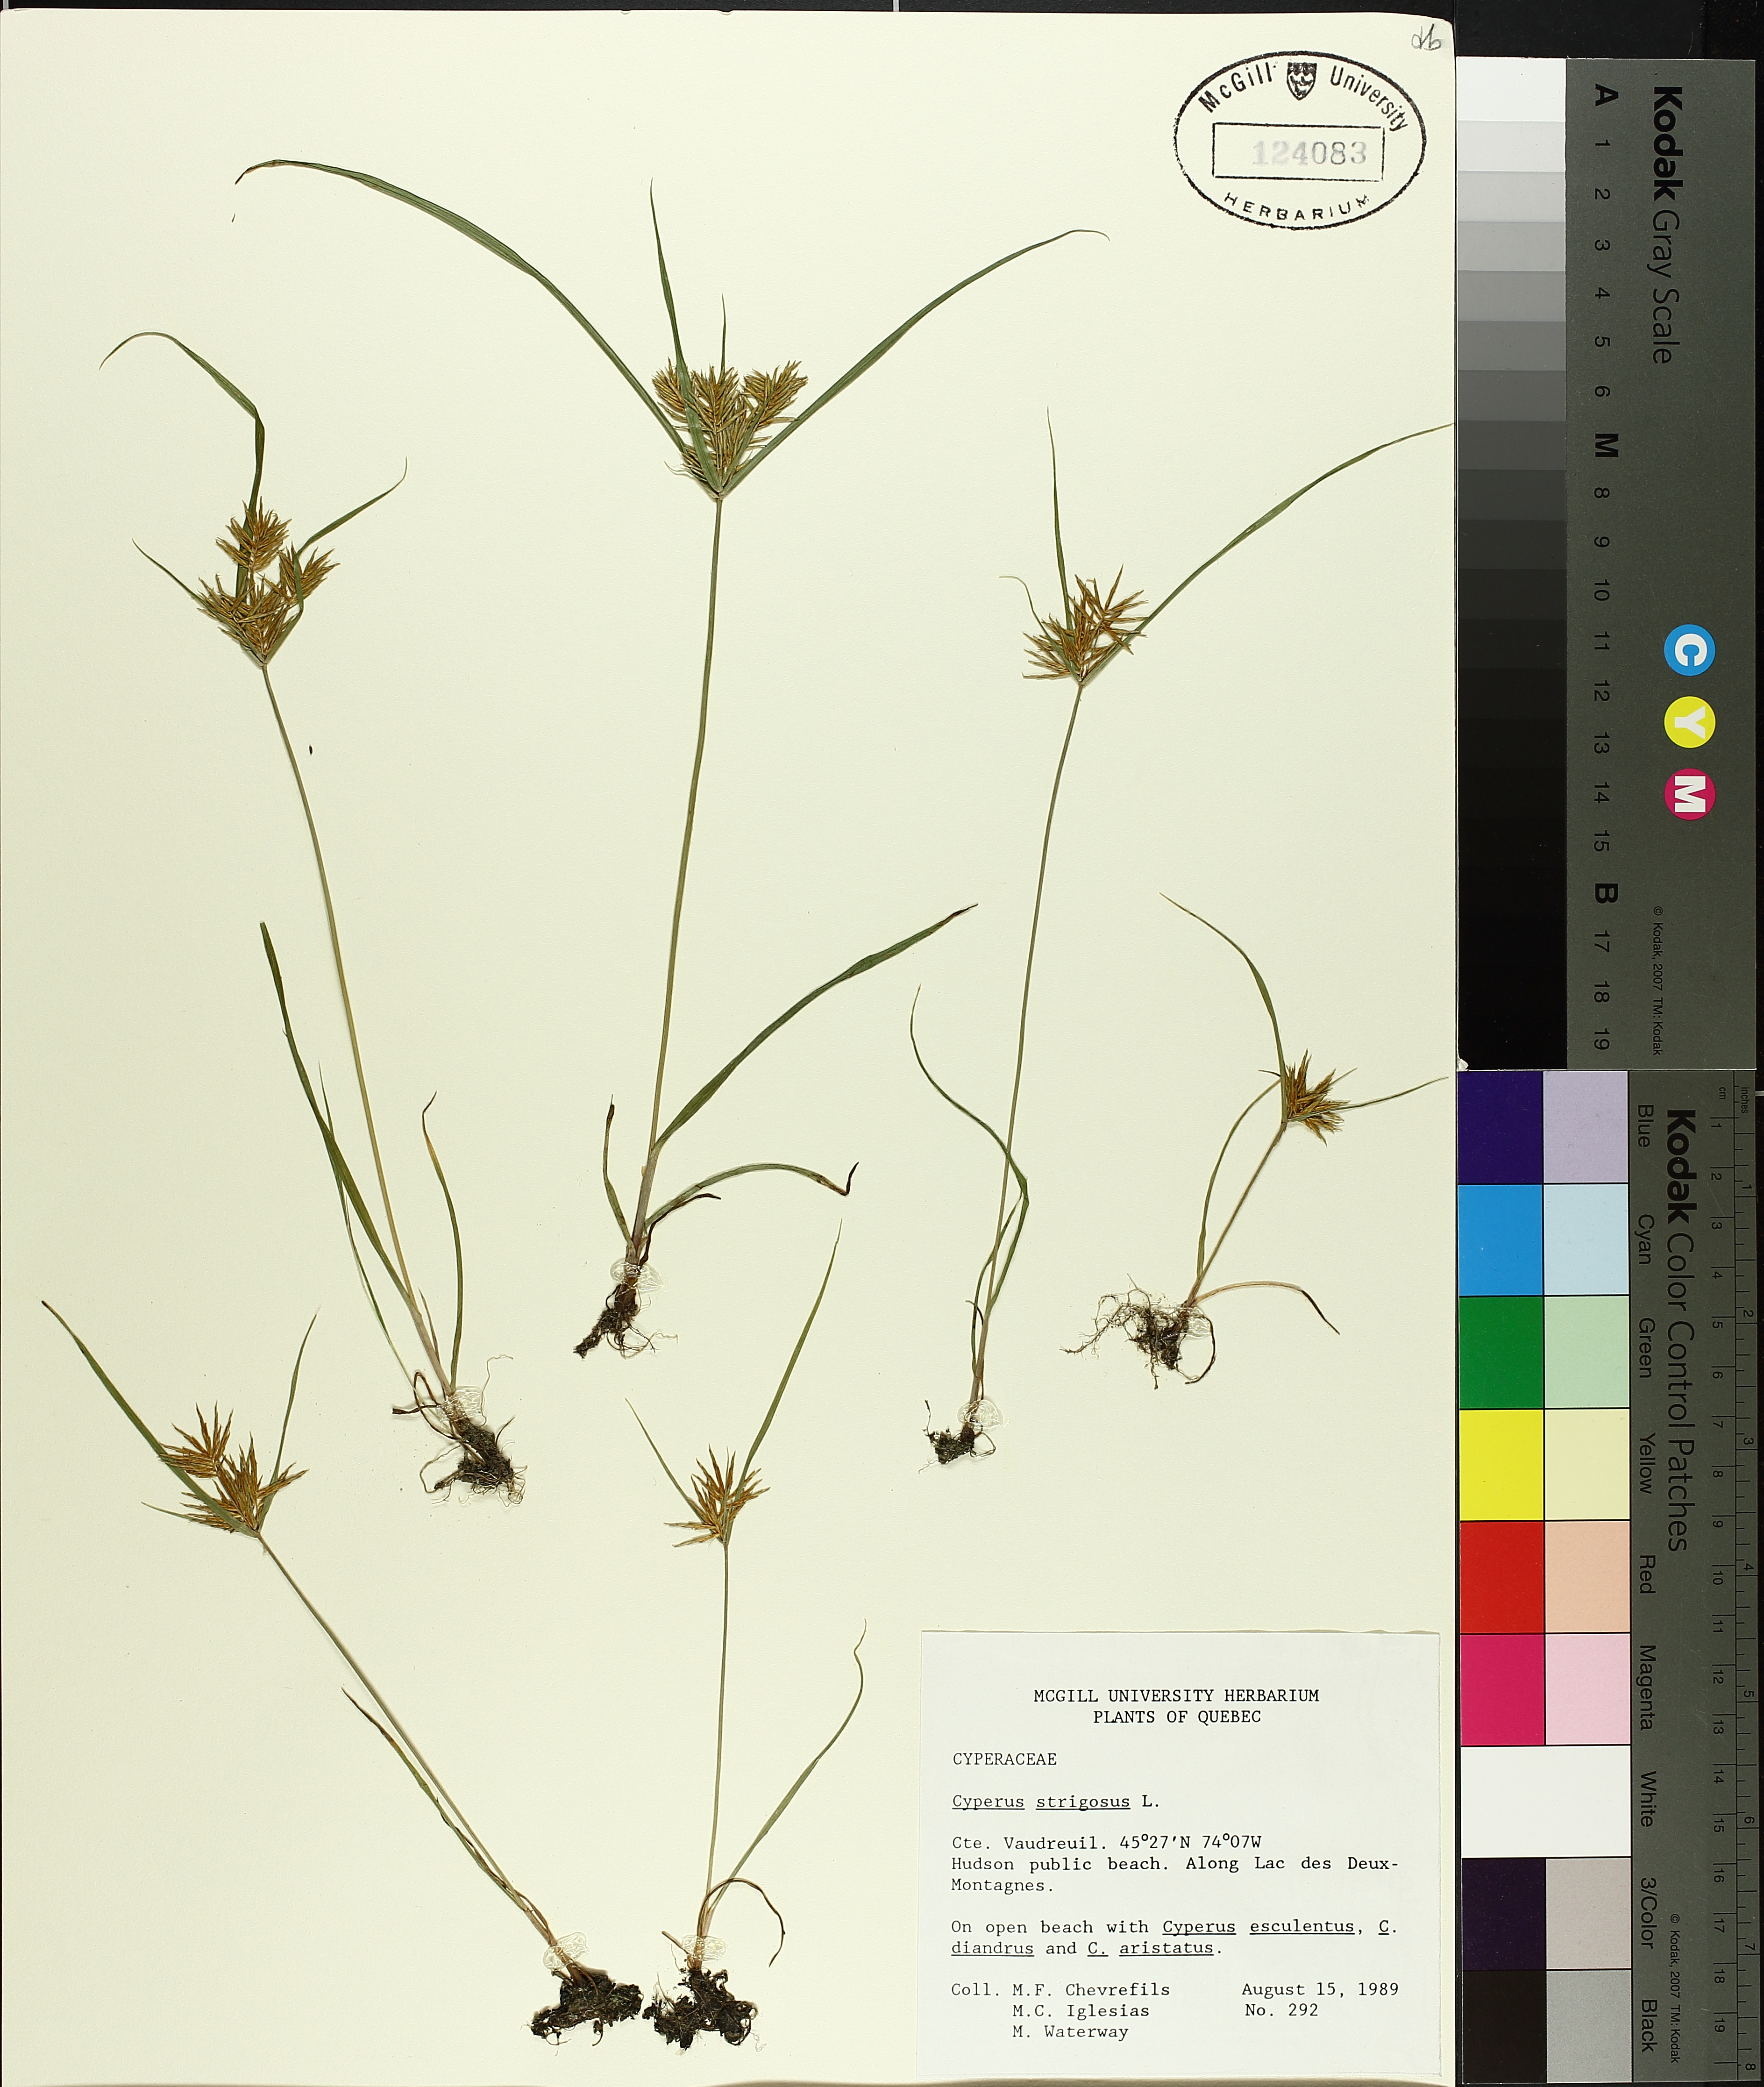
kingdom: Plantae
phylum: Tracheophyta
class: Liliopsida
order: Poales
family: Cyperaceae
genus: Cyperus
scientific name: Cyperus strigosus
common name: False nutsedge
